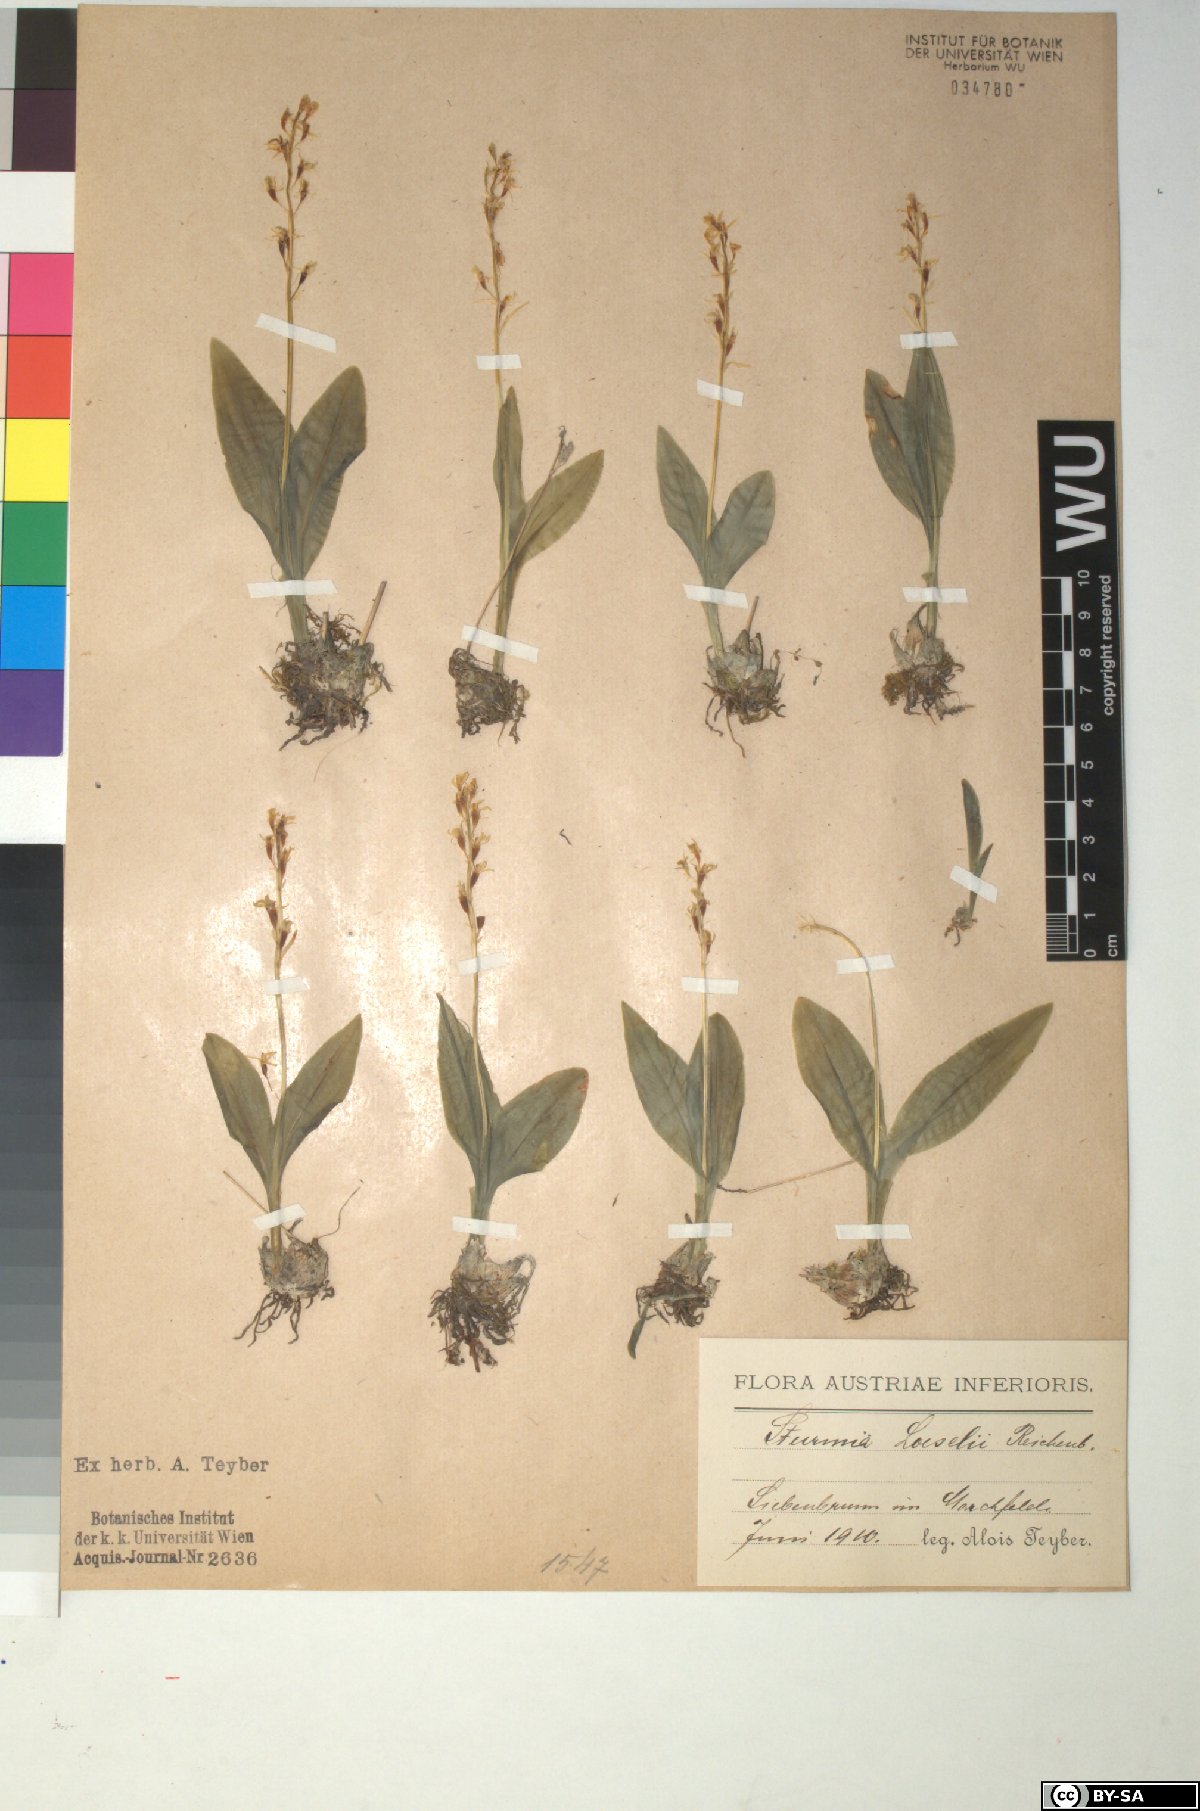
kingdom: Animalia
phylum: Arthropoda
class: Insecta
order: Coleoptera
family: Curculionidae
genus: Liparis
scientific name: Liparis loeselii
